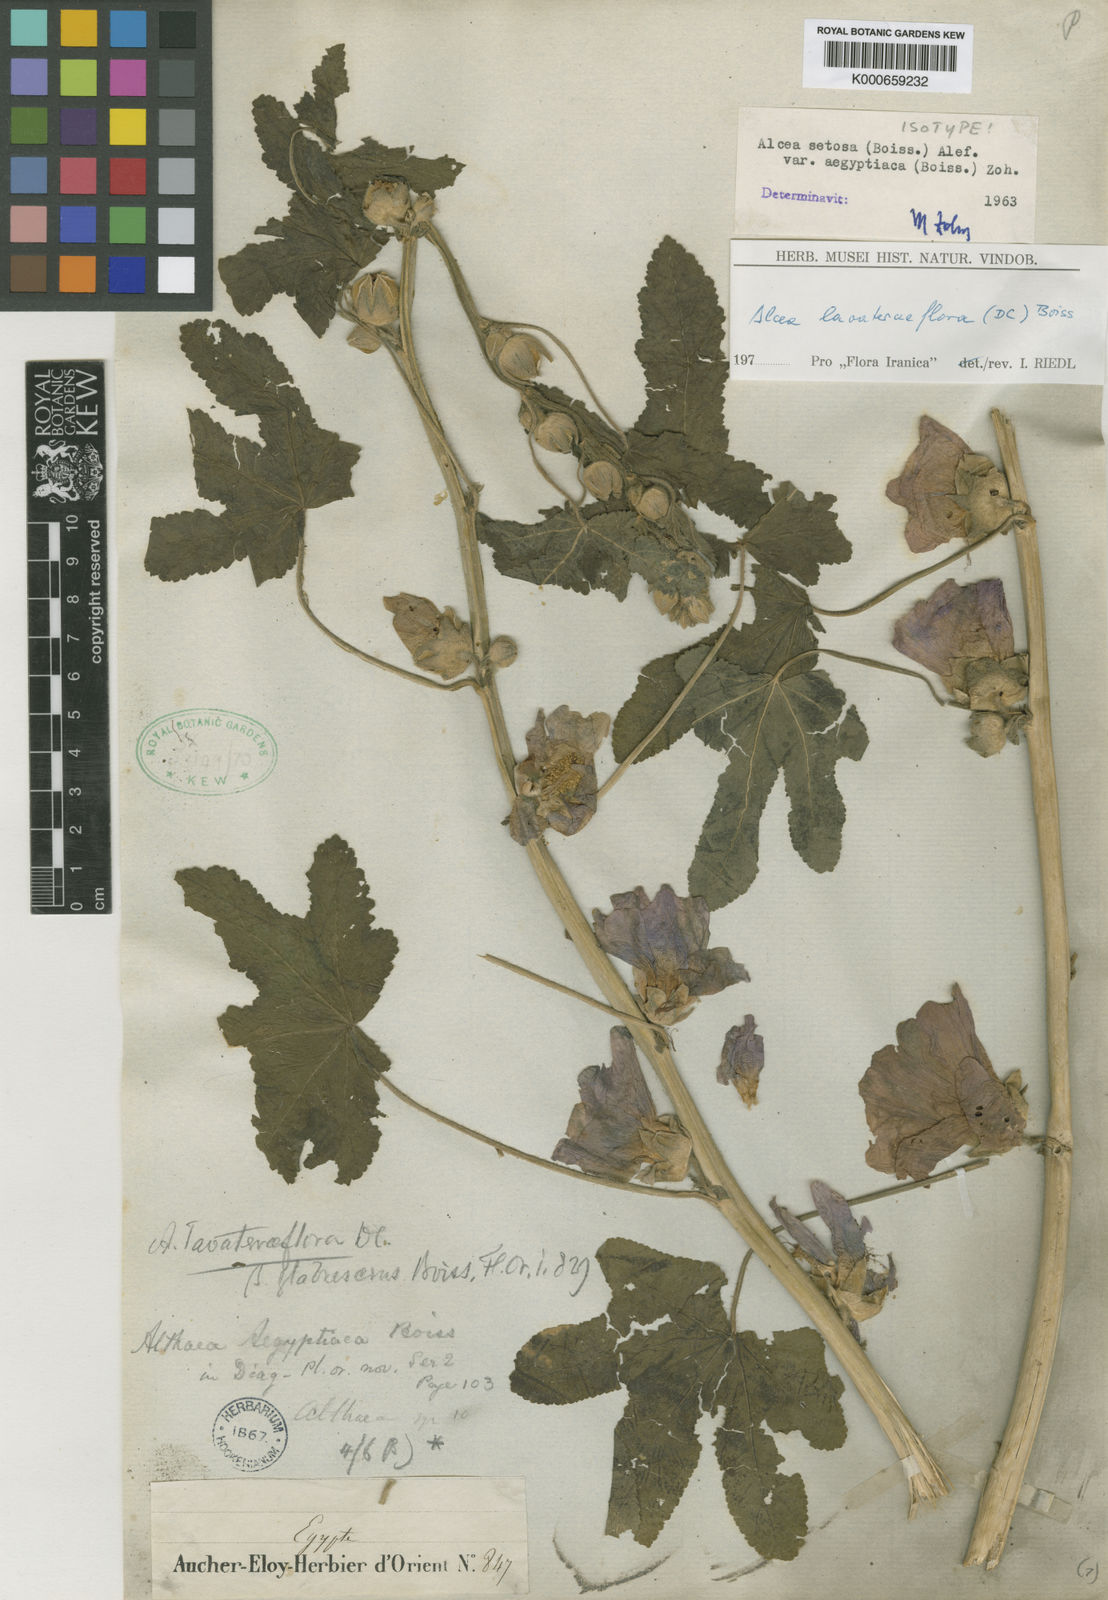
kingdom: Plantae
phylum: Tracheophyta
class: Magnoliopsida
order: Malvales
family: Malvaceae
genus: Alcea
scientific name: Alcea setosa
